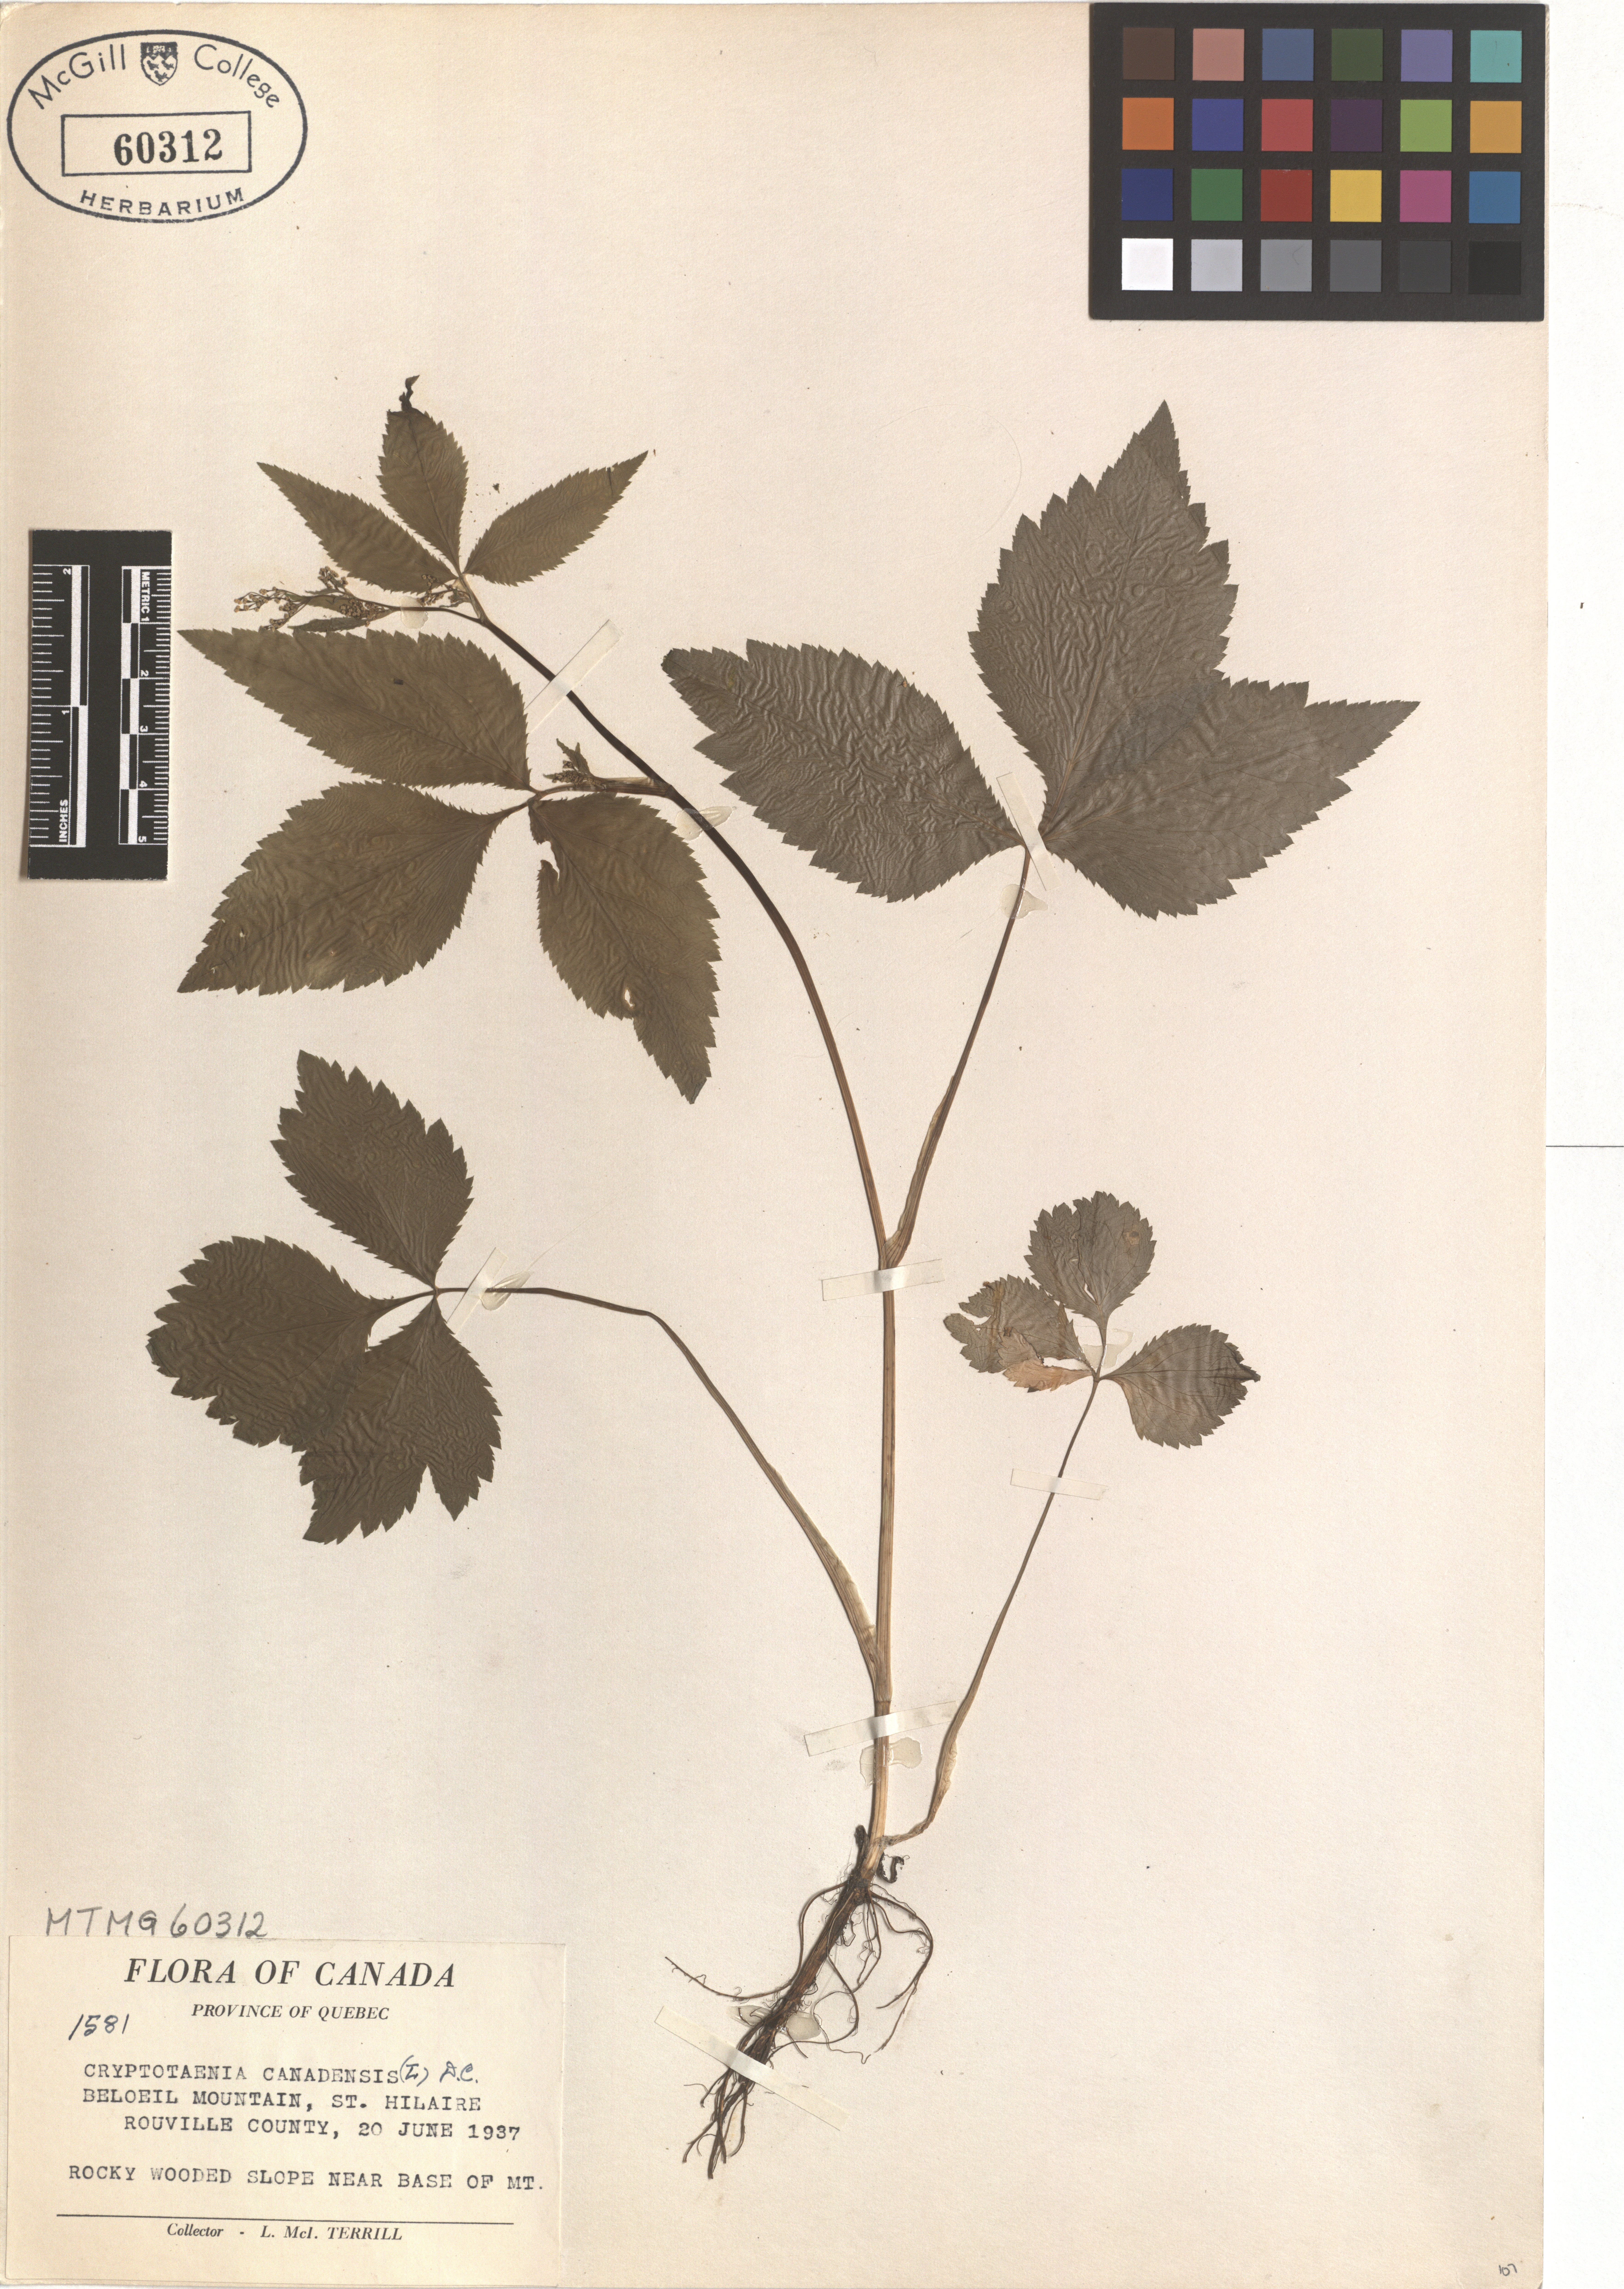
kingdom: Plantae
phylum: Tracheophyta
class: Magnoliopsida
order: Apiales
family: Apiaceae
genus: Cryptotaenia
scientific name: Cryptotaenia canadensis
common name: Honewort
